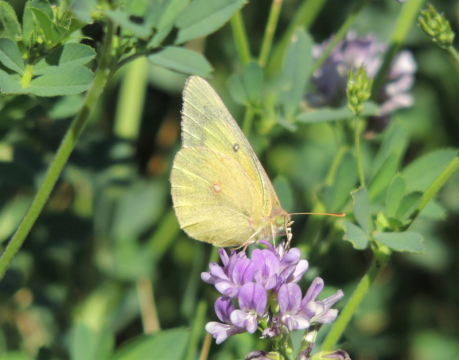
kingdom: Animalia
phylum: Arthropoda
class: Insecta
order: Lepidoptera
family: Pieridae
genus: Colias
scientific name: Colias eurytheme
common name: Orange Sulphur
